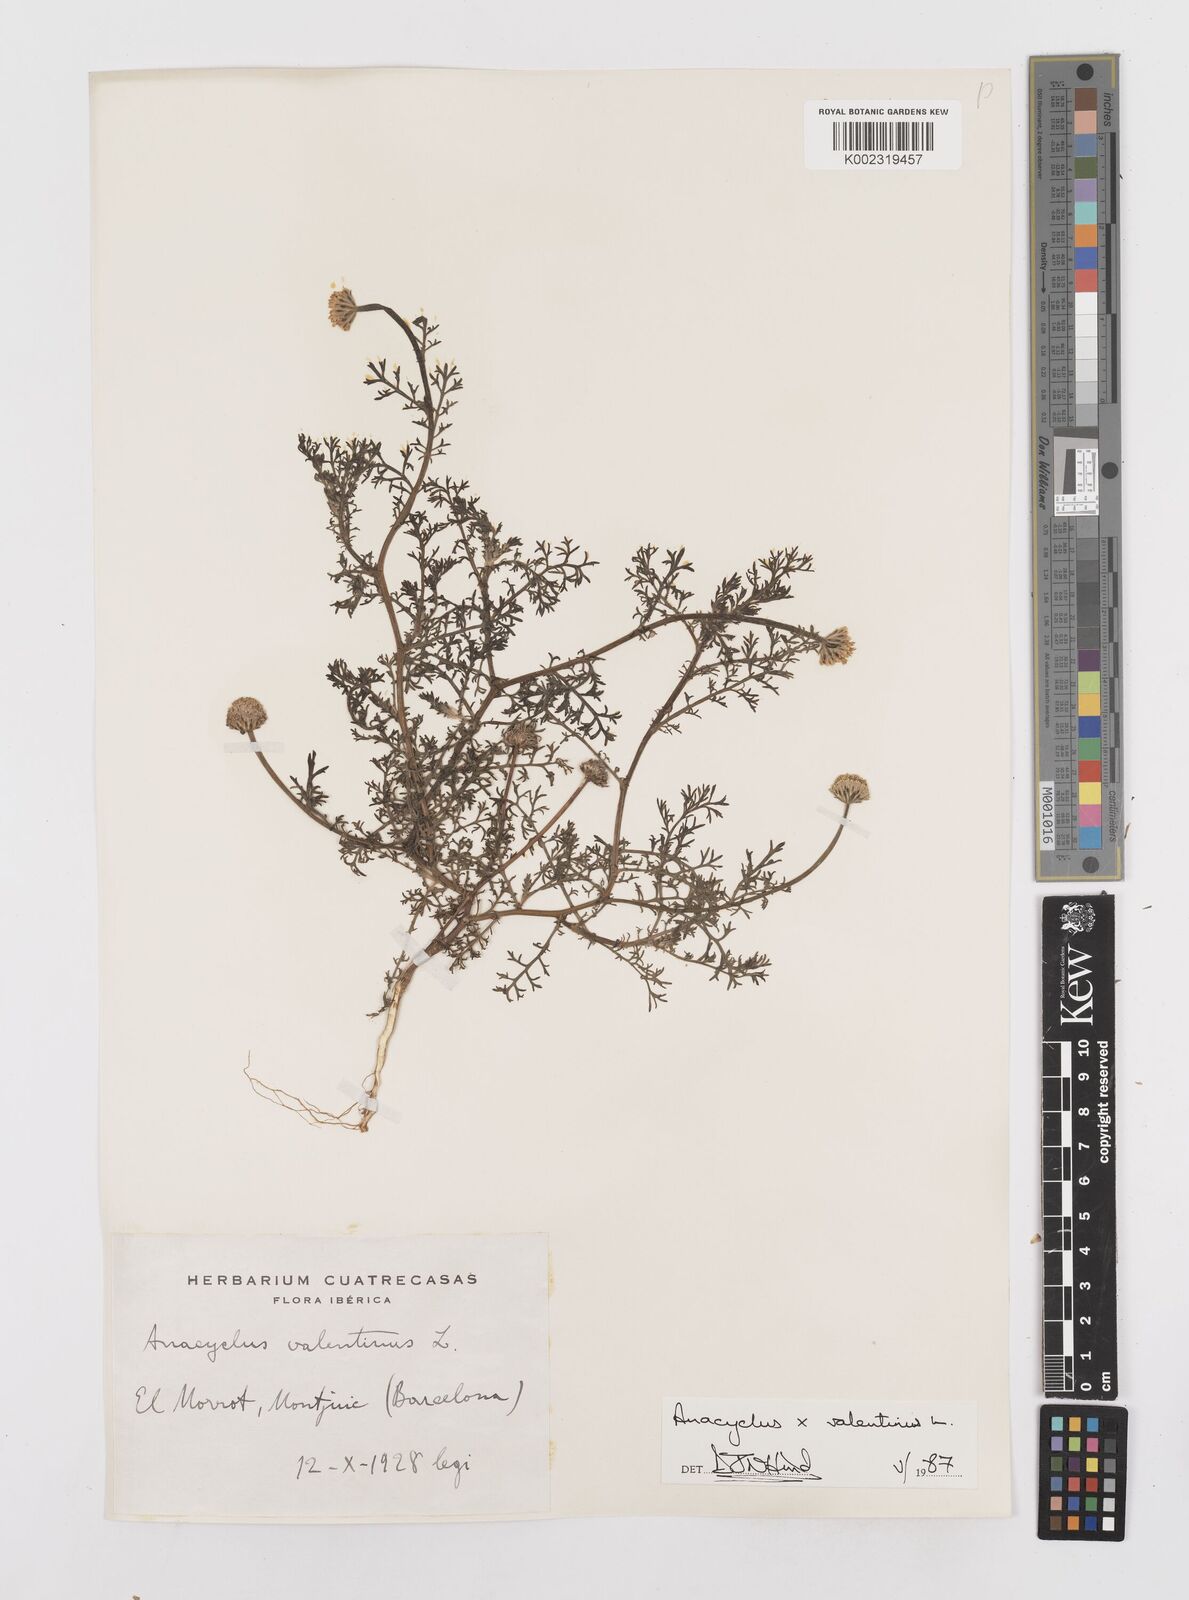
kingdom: Plantae
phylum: Tracheophyta
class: Magnoliopsida
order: Asterales
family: Asteraceae
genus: Anacyclus
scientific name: Anacyclus valentinus
